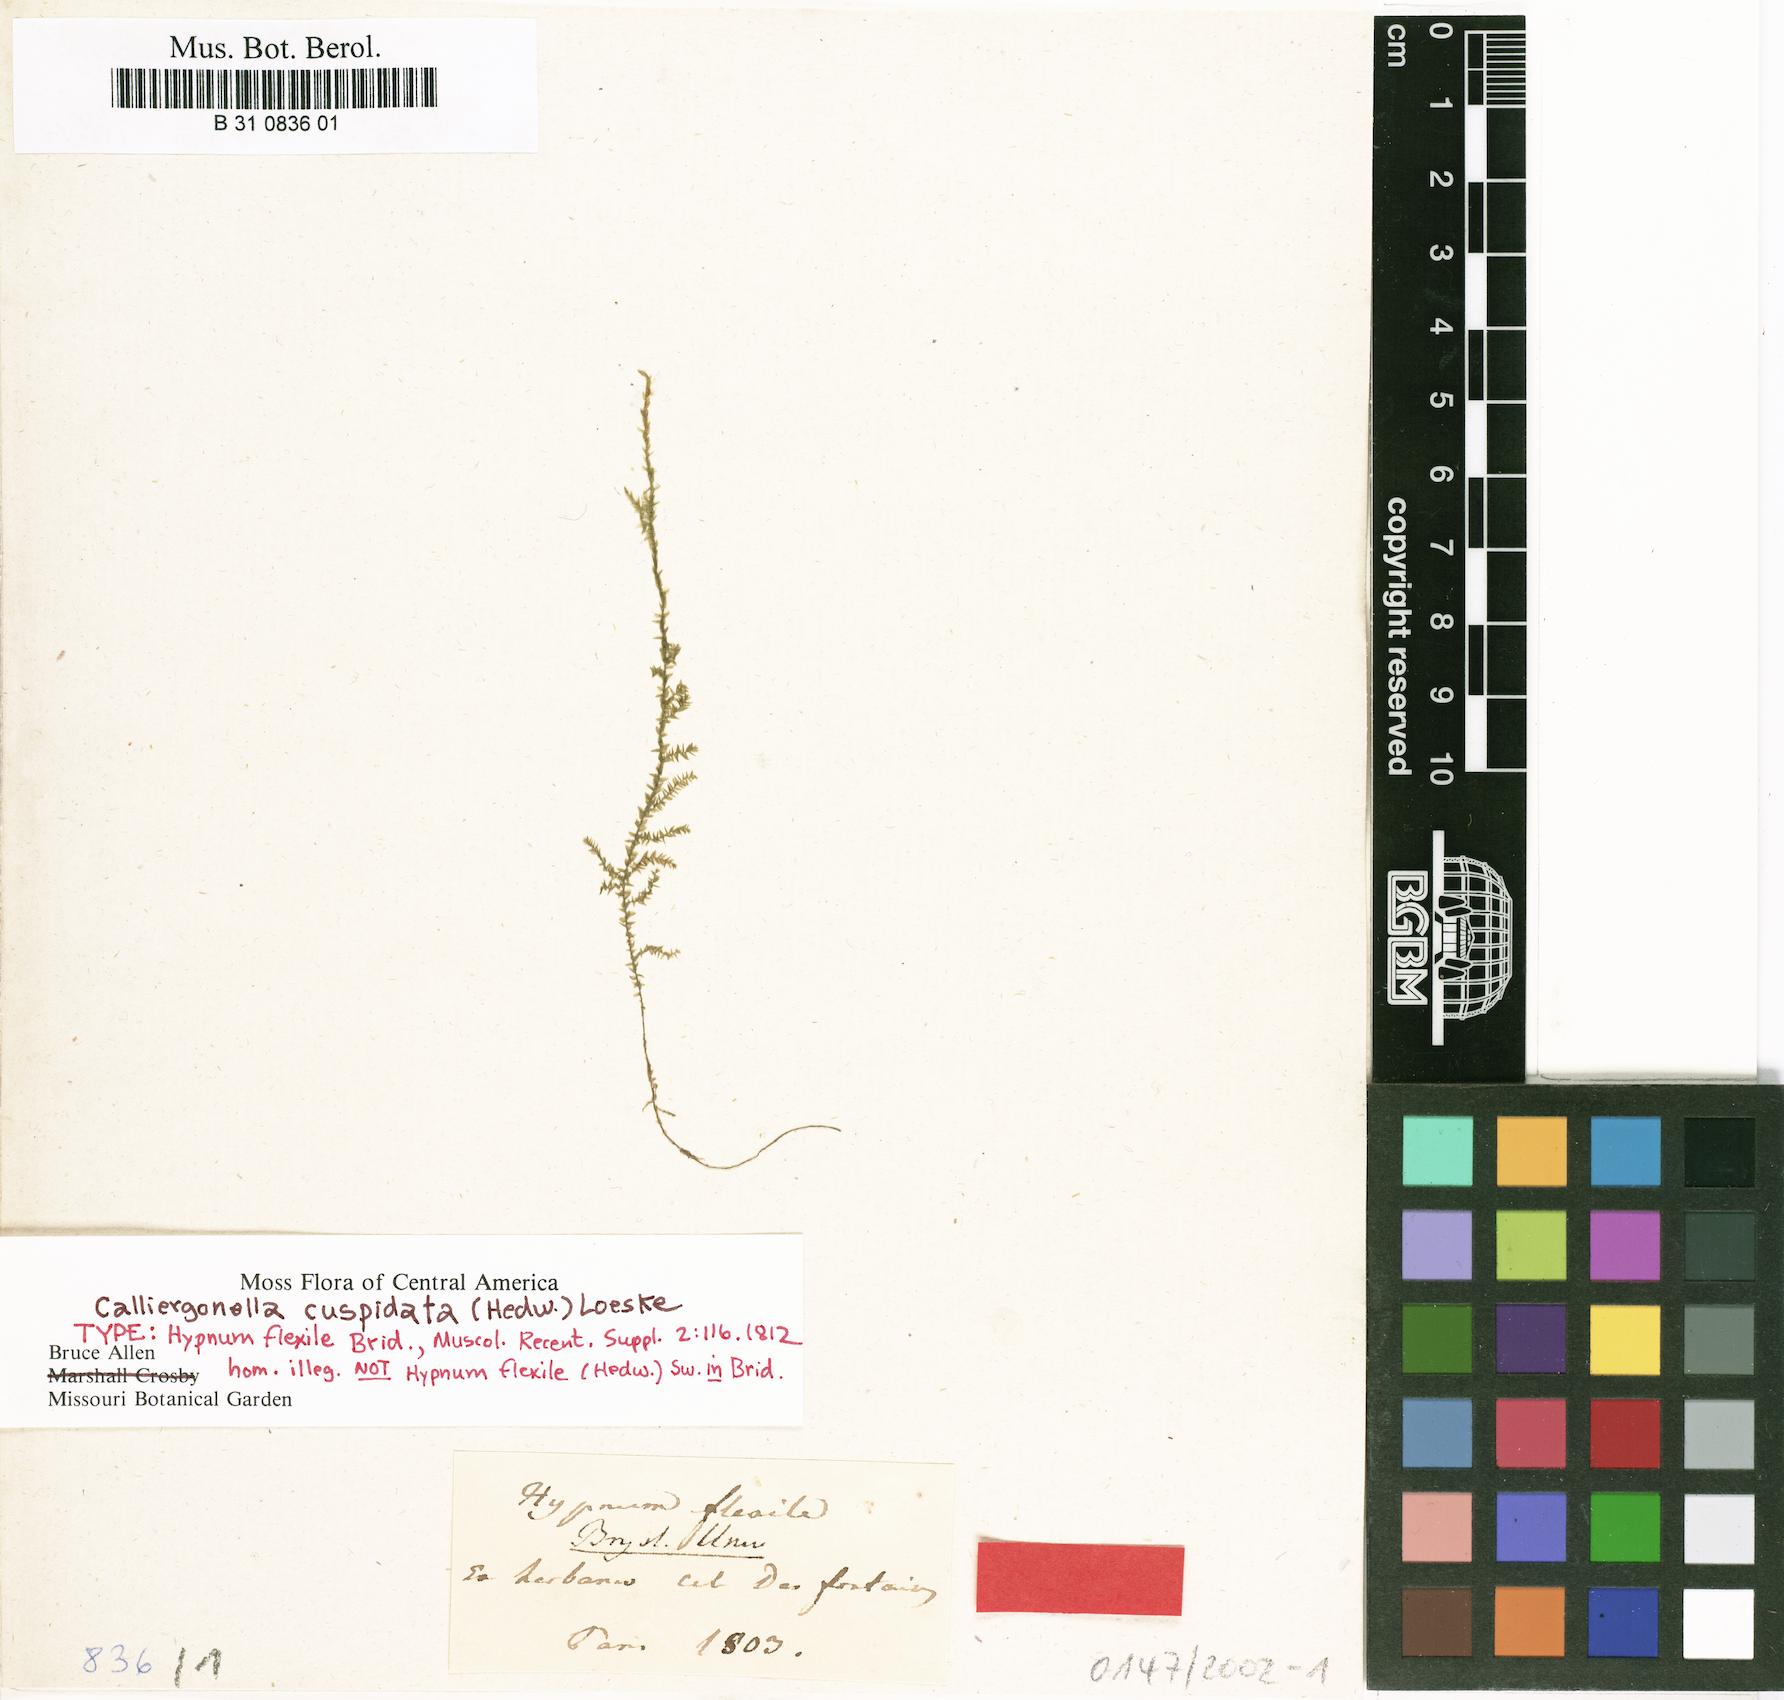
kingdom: Plantae
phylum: Bryophyta
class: Bryopsida
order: Hypnales
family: Lembophyllaceae
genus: Pilotrichella
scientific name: Pilotrichella flexilis
